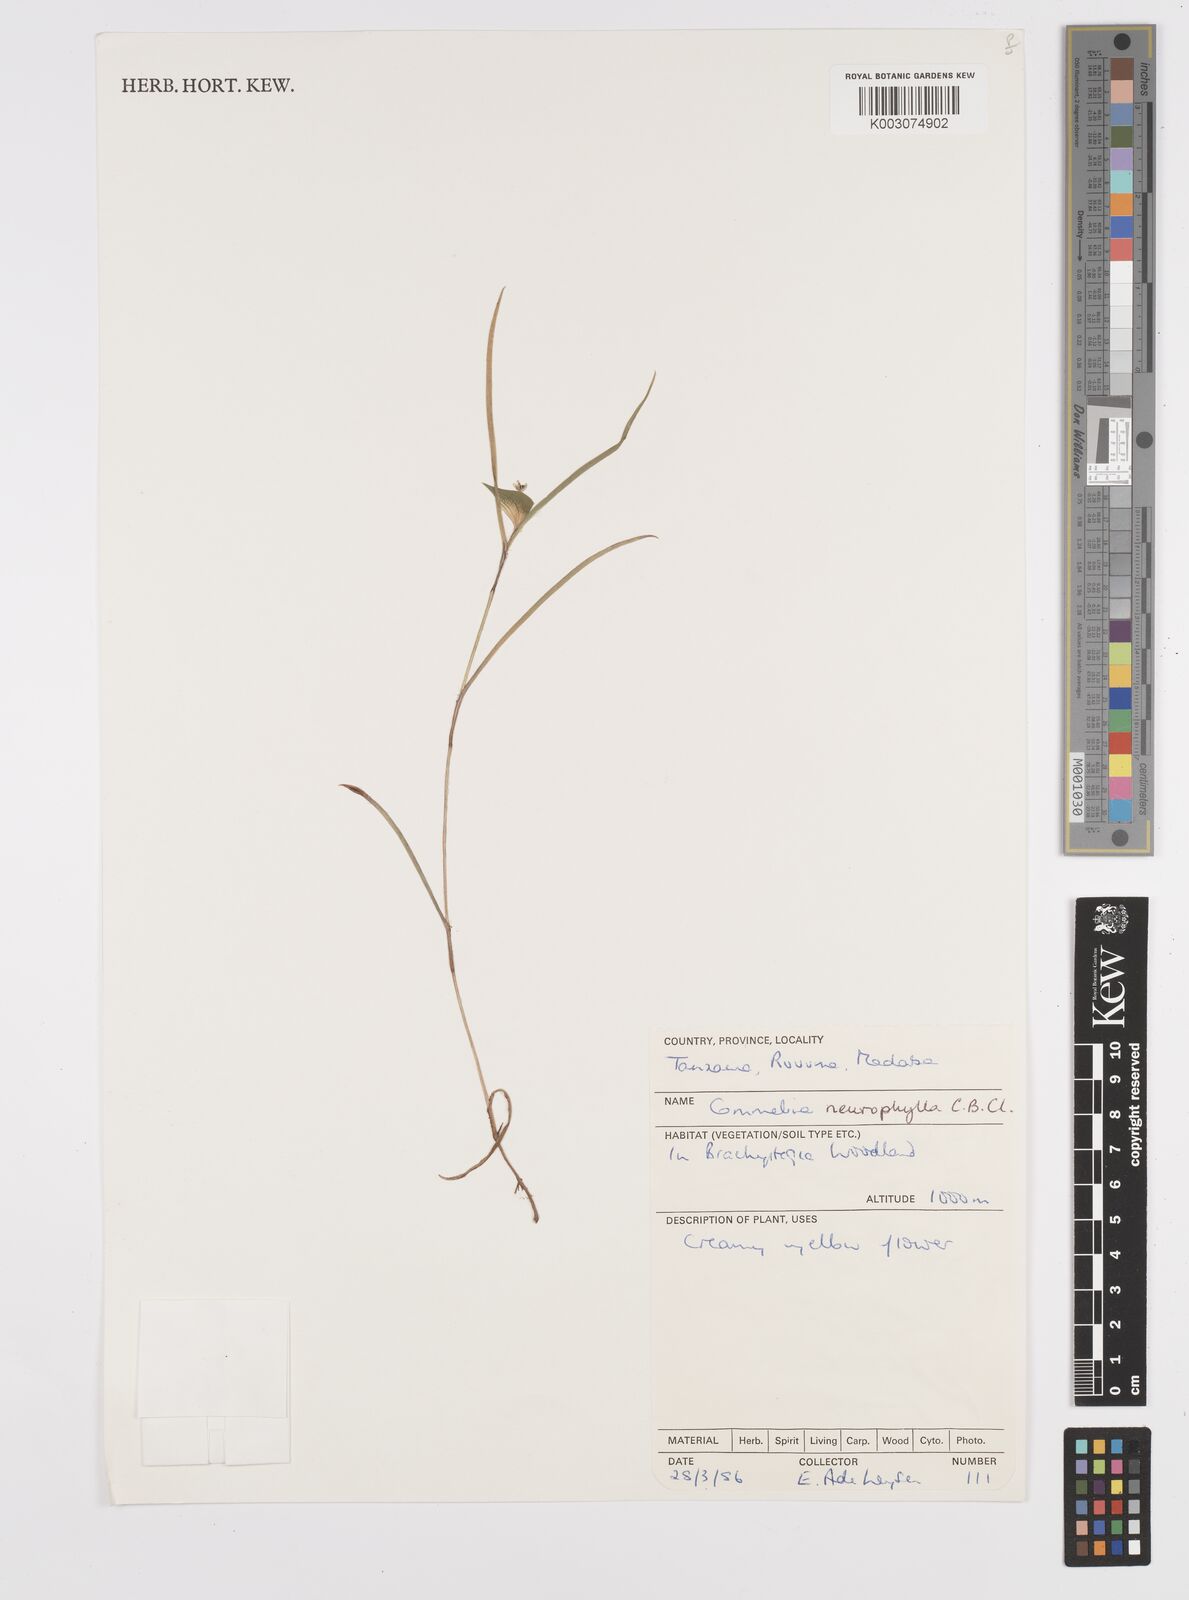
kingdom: Plantae
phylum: Tracheophyta
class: Liliopsida
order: Commelinales
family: Commelinaceae
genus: Commelina
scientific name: Commelina neurophylla
